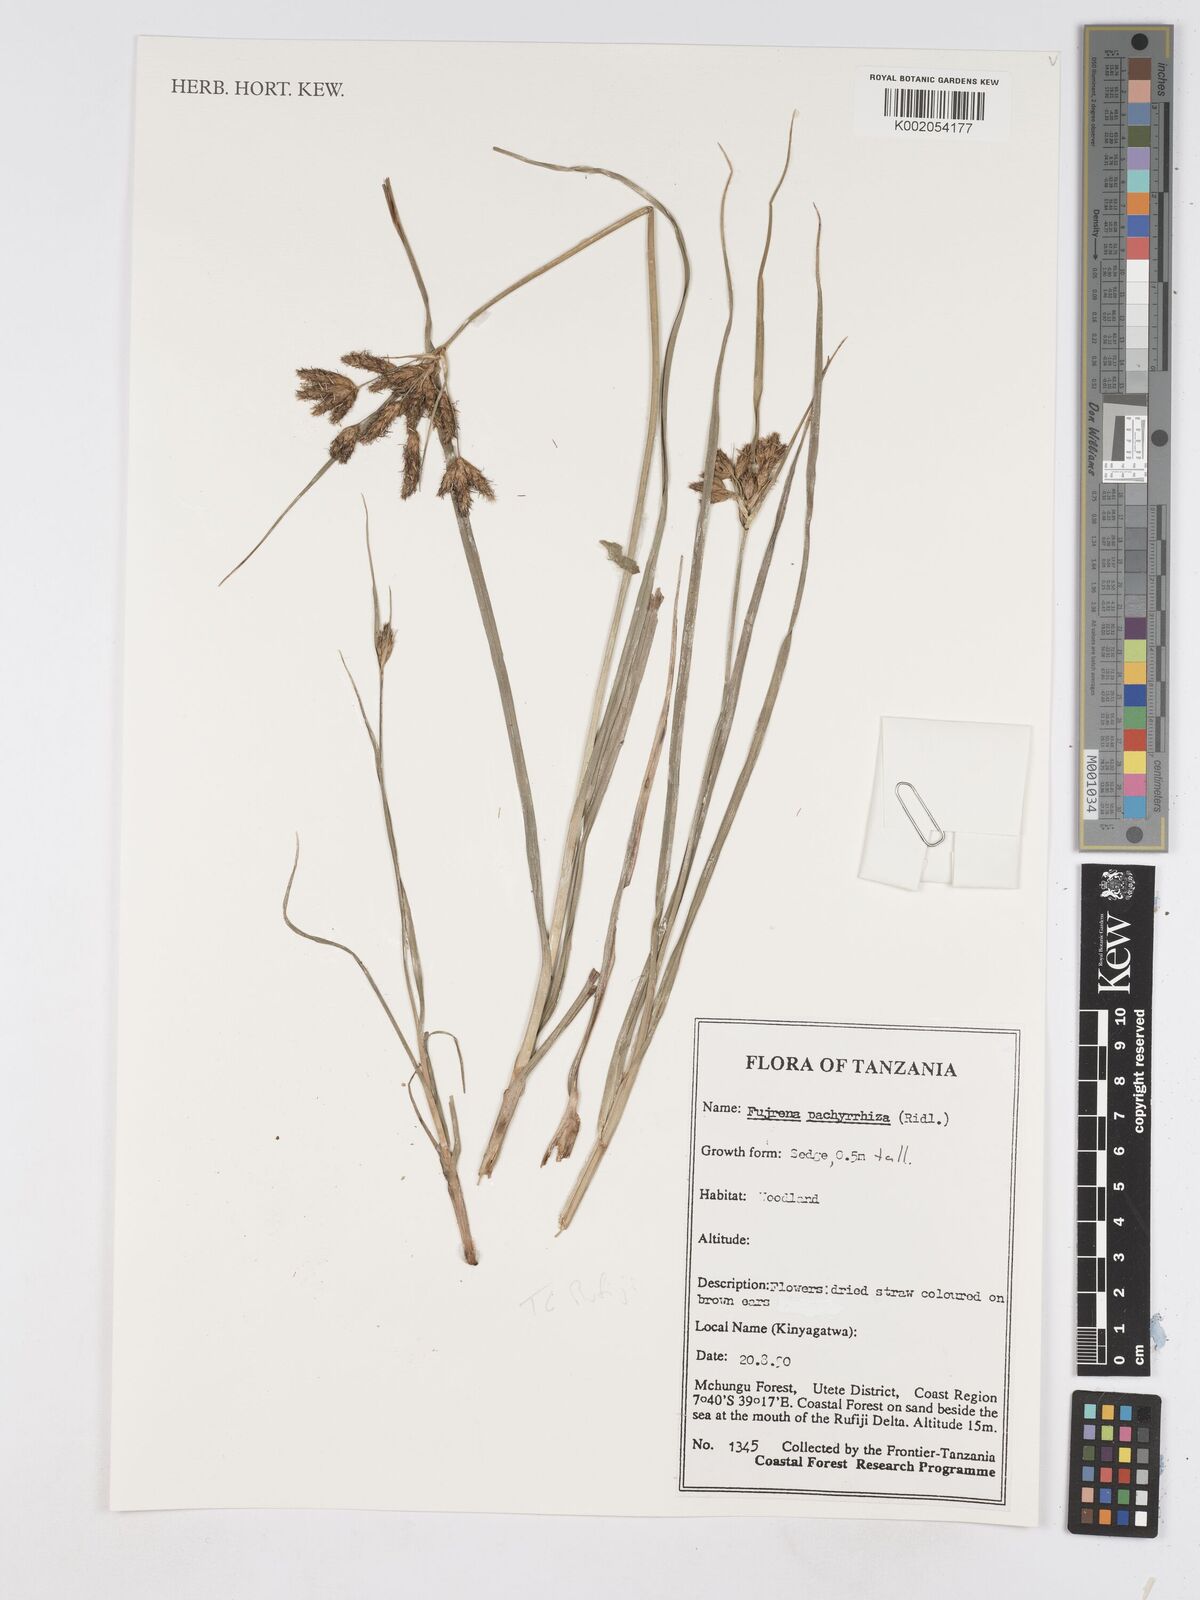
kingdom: Plantae
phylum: Tracheophyta
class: Liliopsida
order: Poales
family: Cyperaceae
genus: Fuirena
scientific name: Fuirena pachyrrhiza
